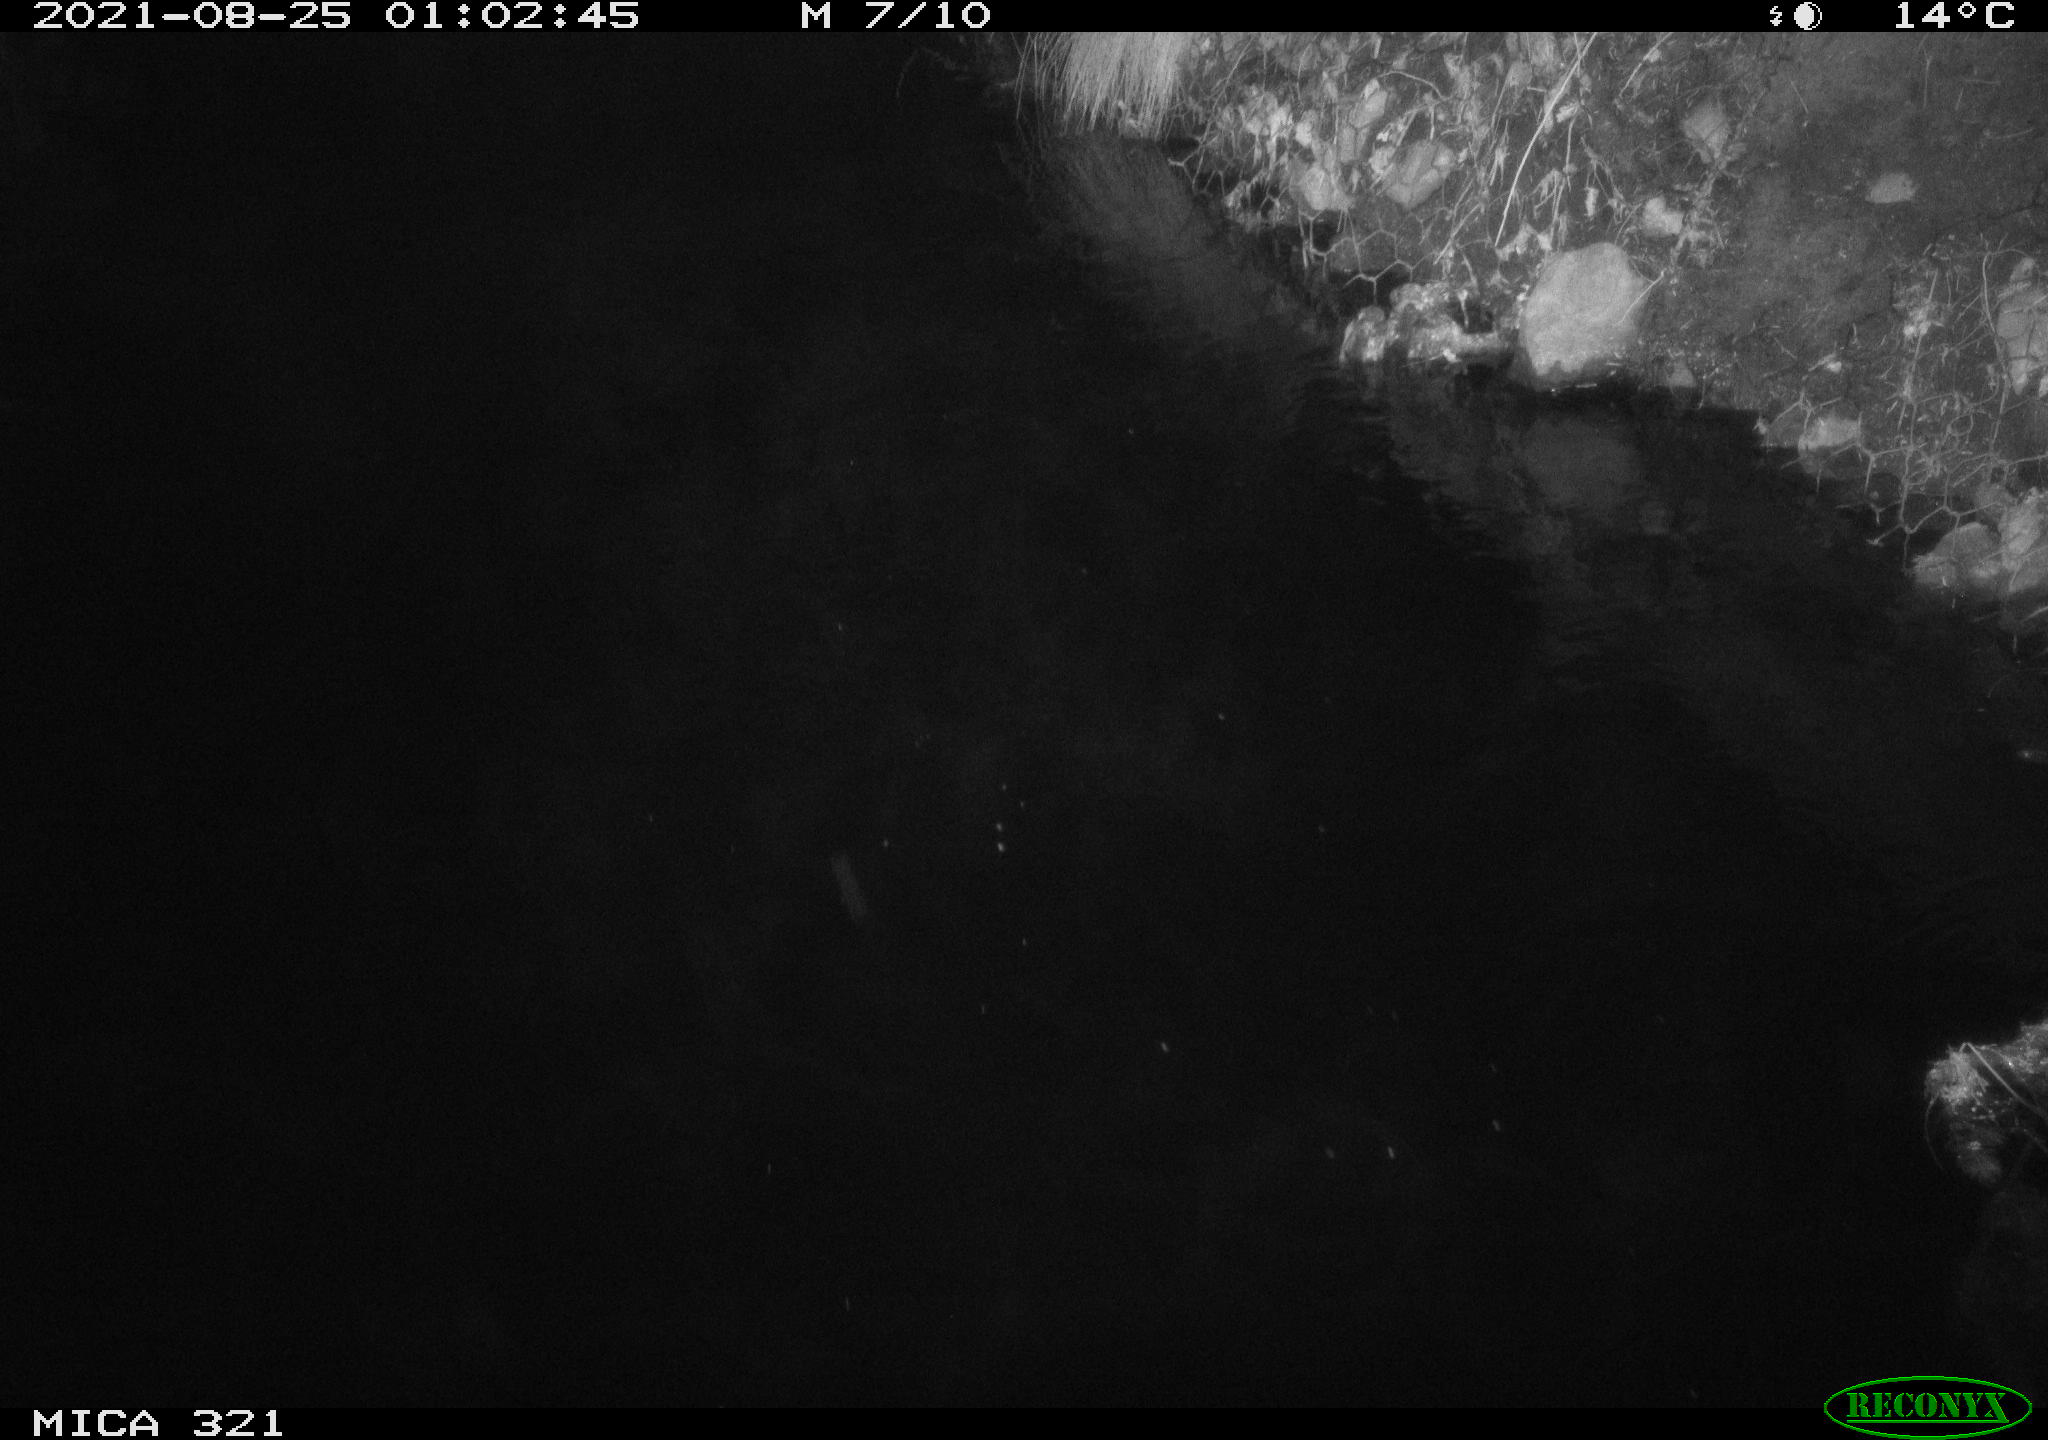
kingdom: Animalia
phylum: Chordata
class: Aves
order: Anseriformes
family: Anatidae
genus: Anas
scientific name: Anas platyrhynchos
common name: Mallard
